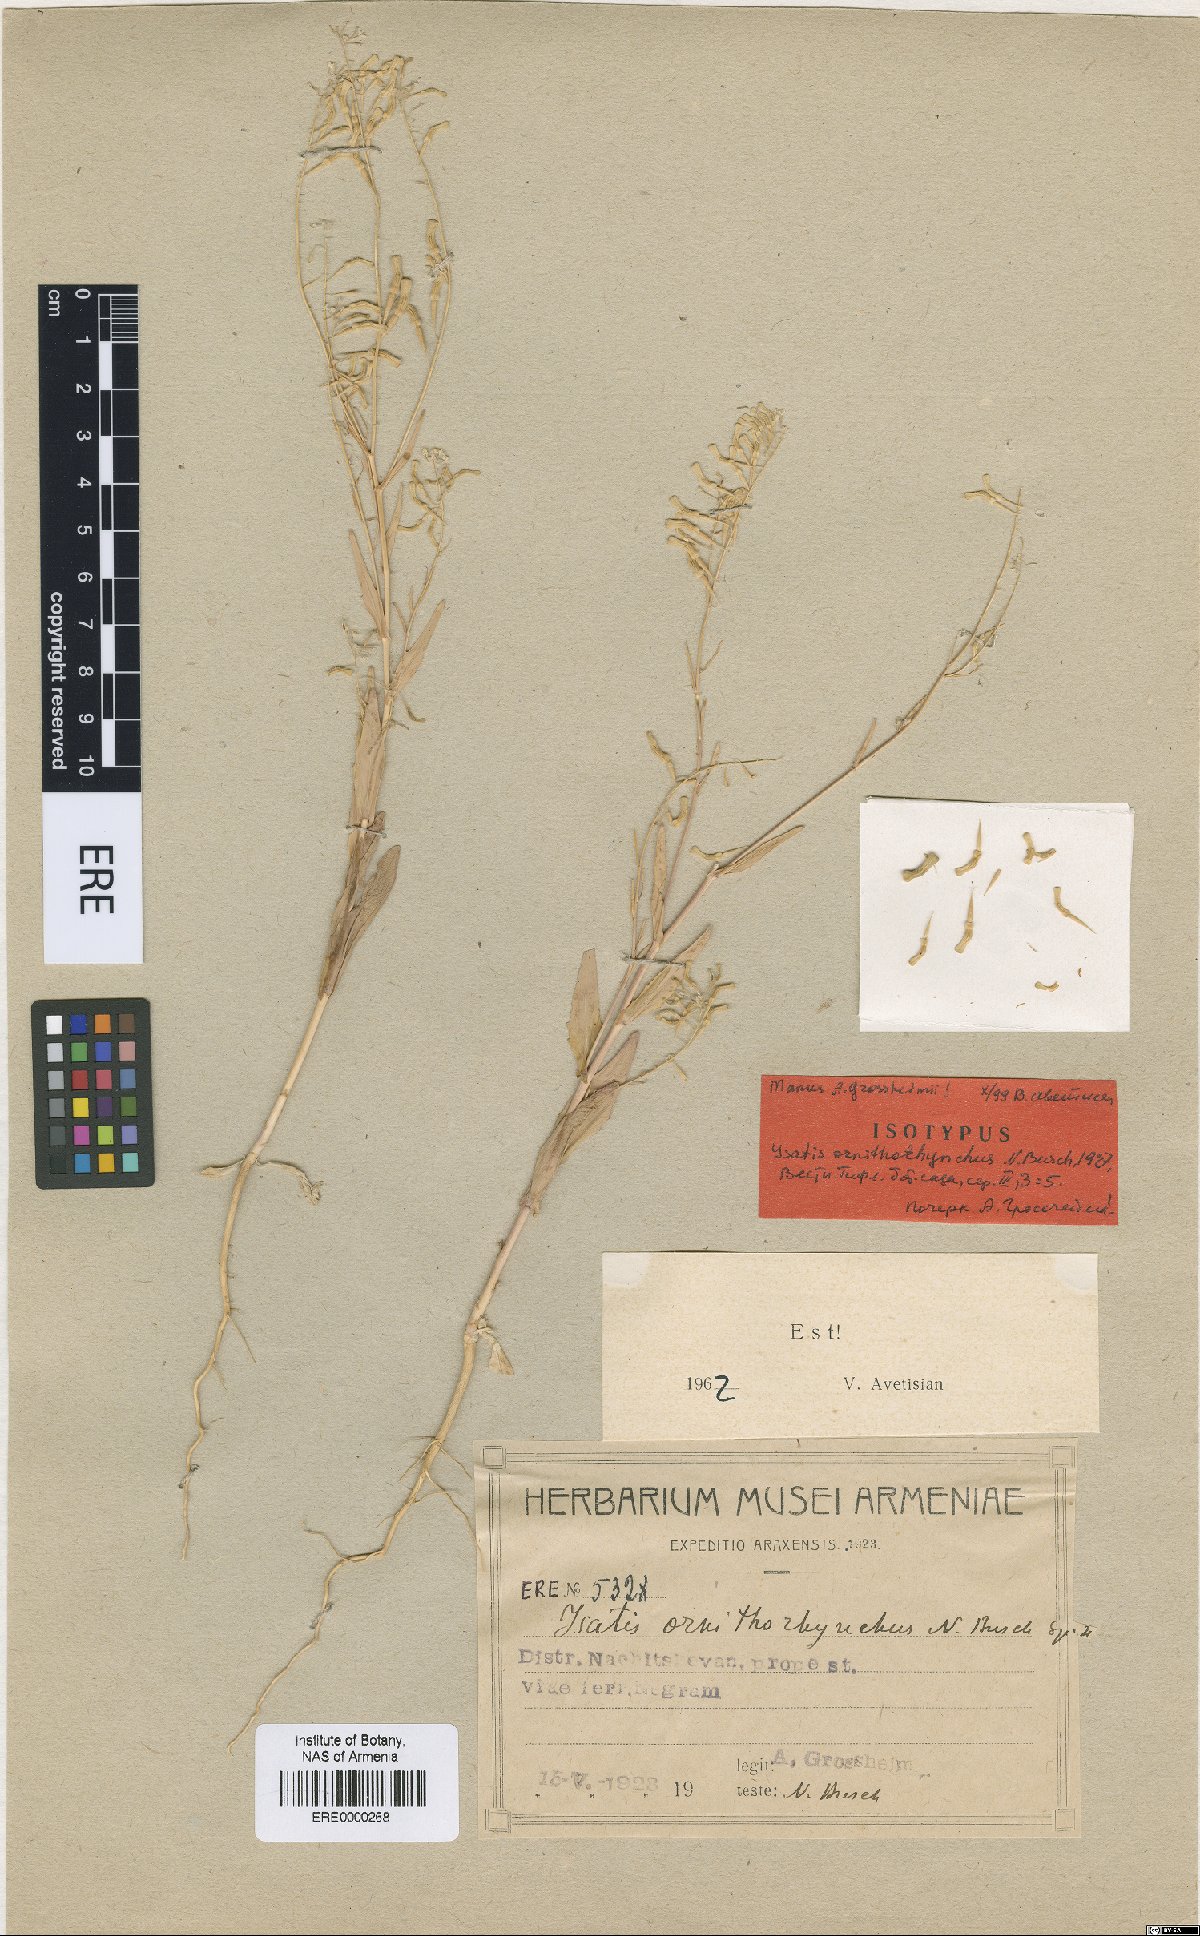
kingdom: Plantae
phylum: Tracheophyta
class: Magnoliopsida
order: Brassicales
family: Brassicaceae
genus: Isatis
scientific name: Isatis ornithorhynchus
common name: Ornithorhynchous woad
